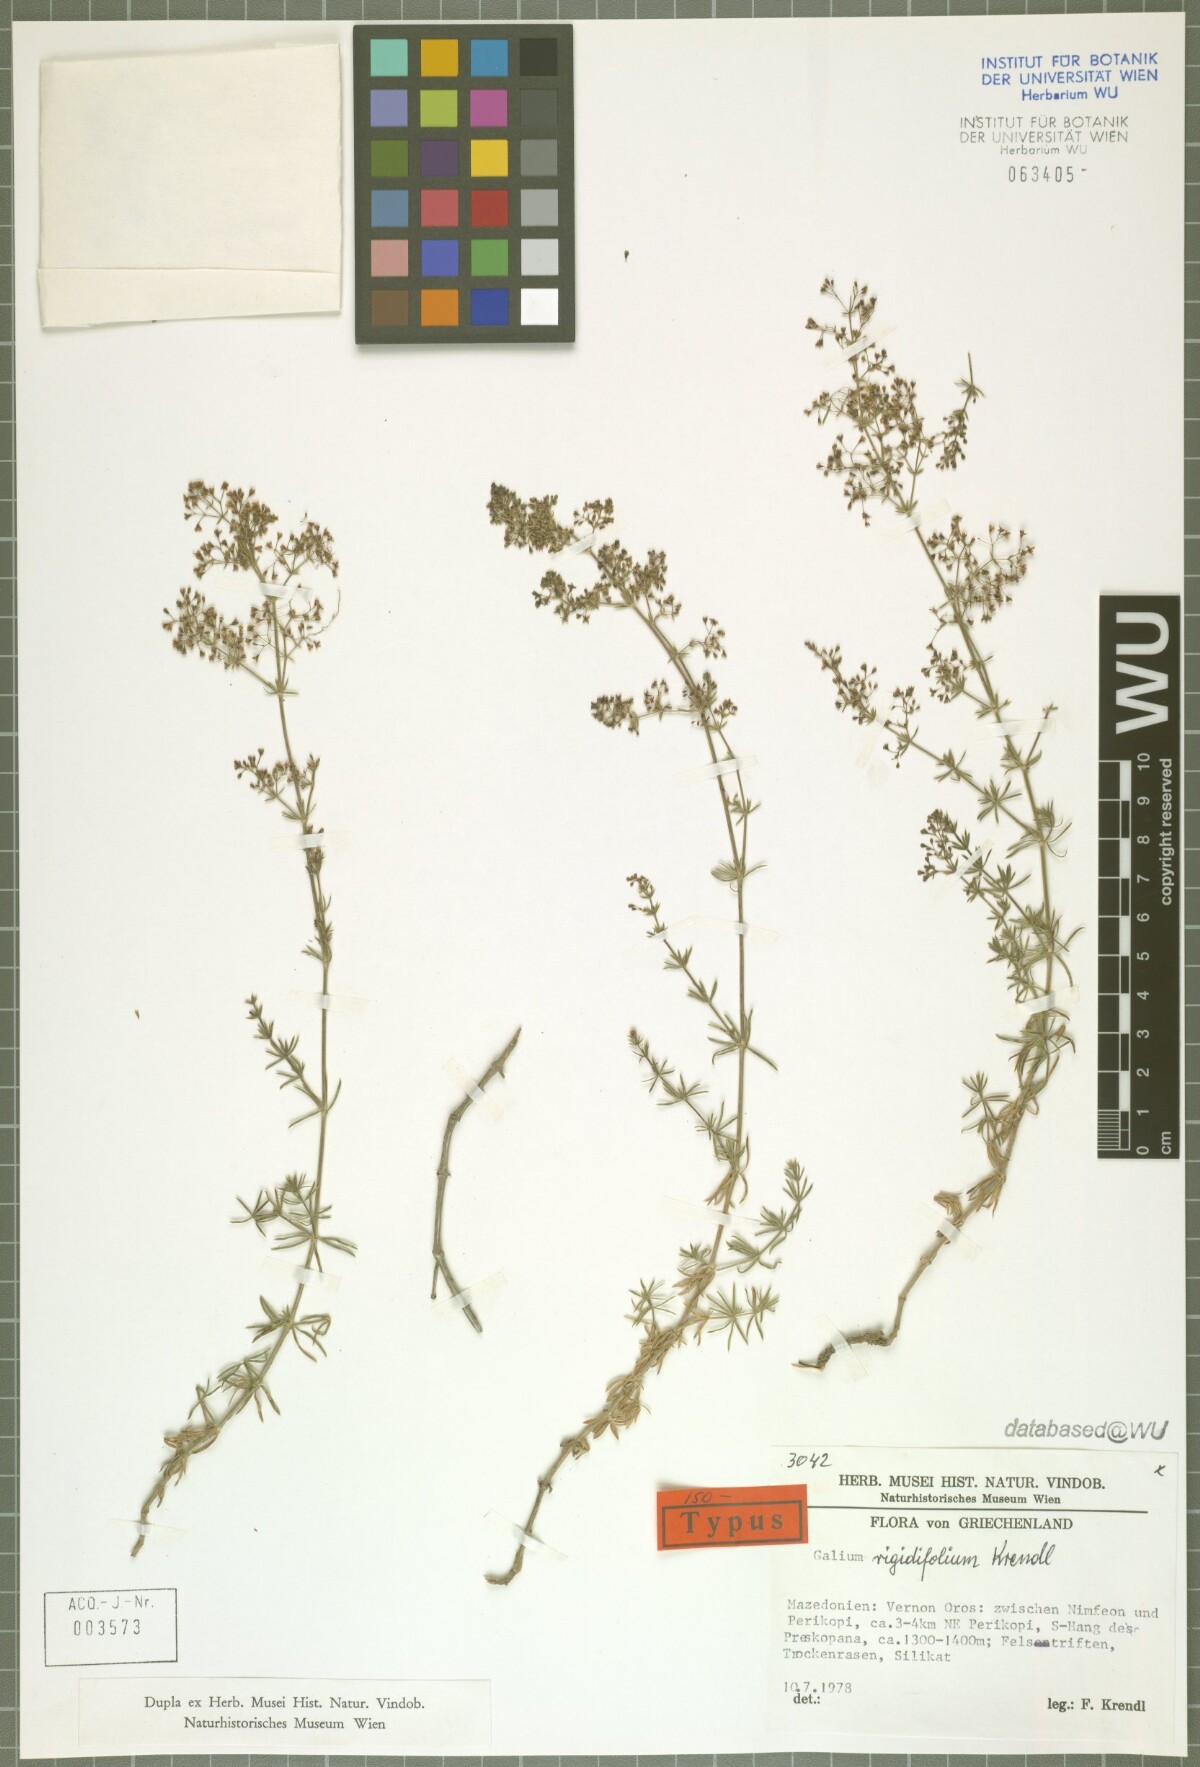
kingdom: Plantae
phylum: Tracheophyta
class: Magnoliopsida
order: Gentianales
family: Rubiaceae
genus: Galium
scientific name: Galium rigidifolium
